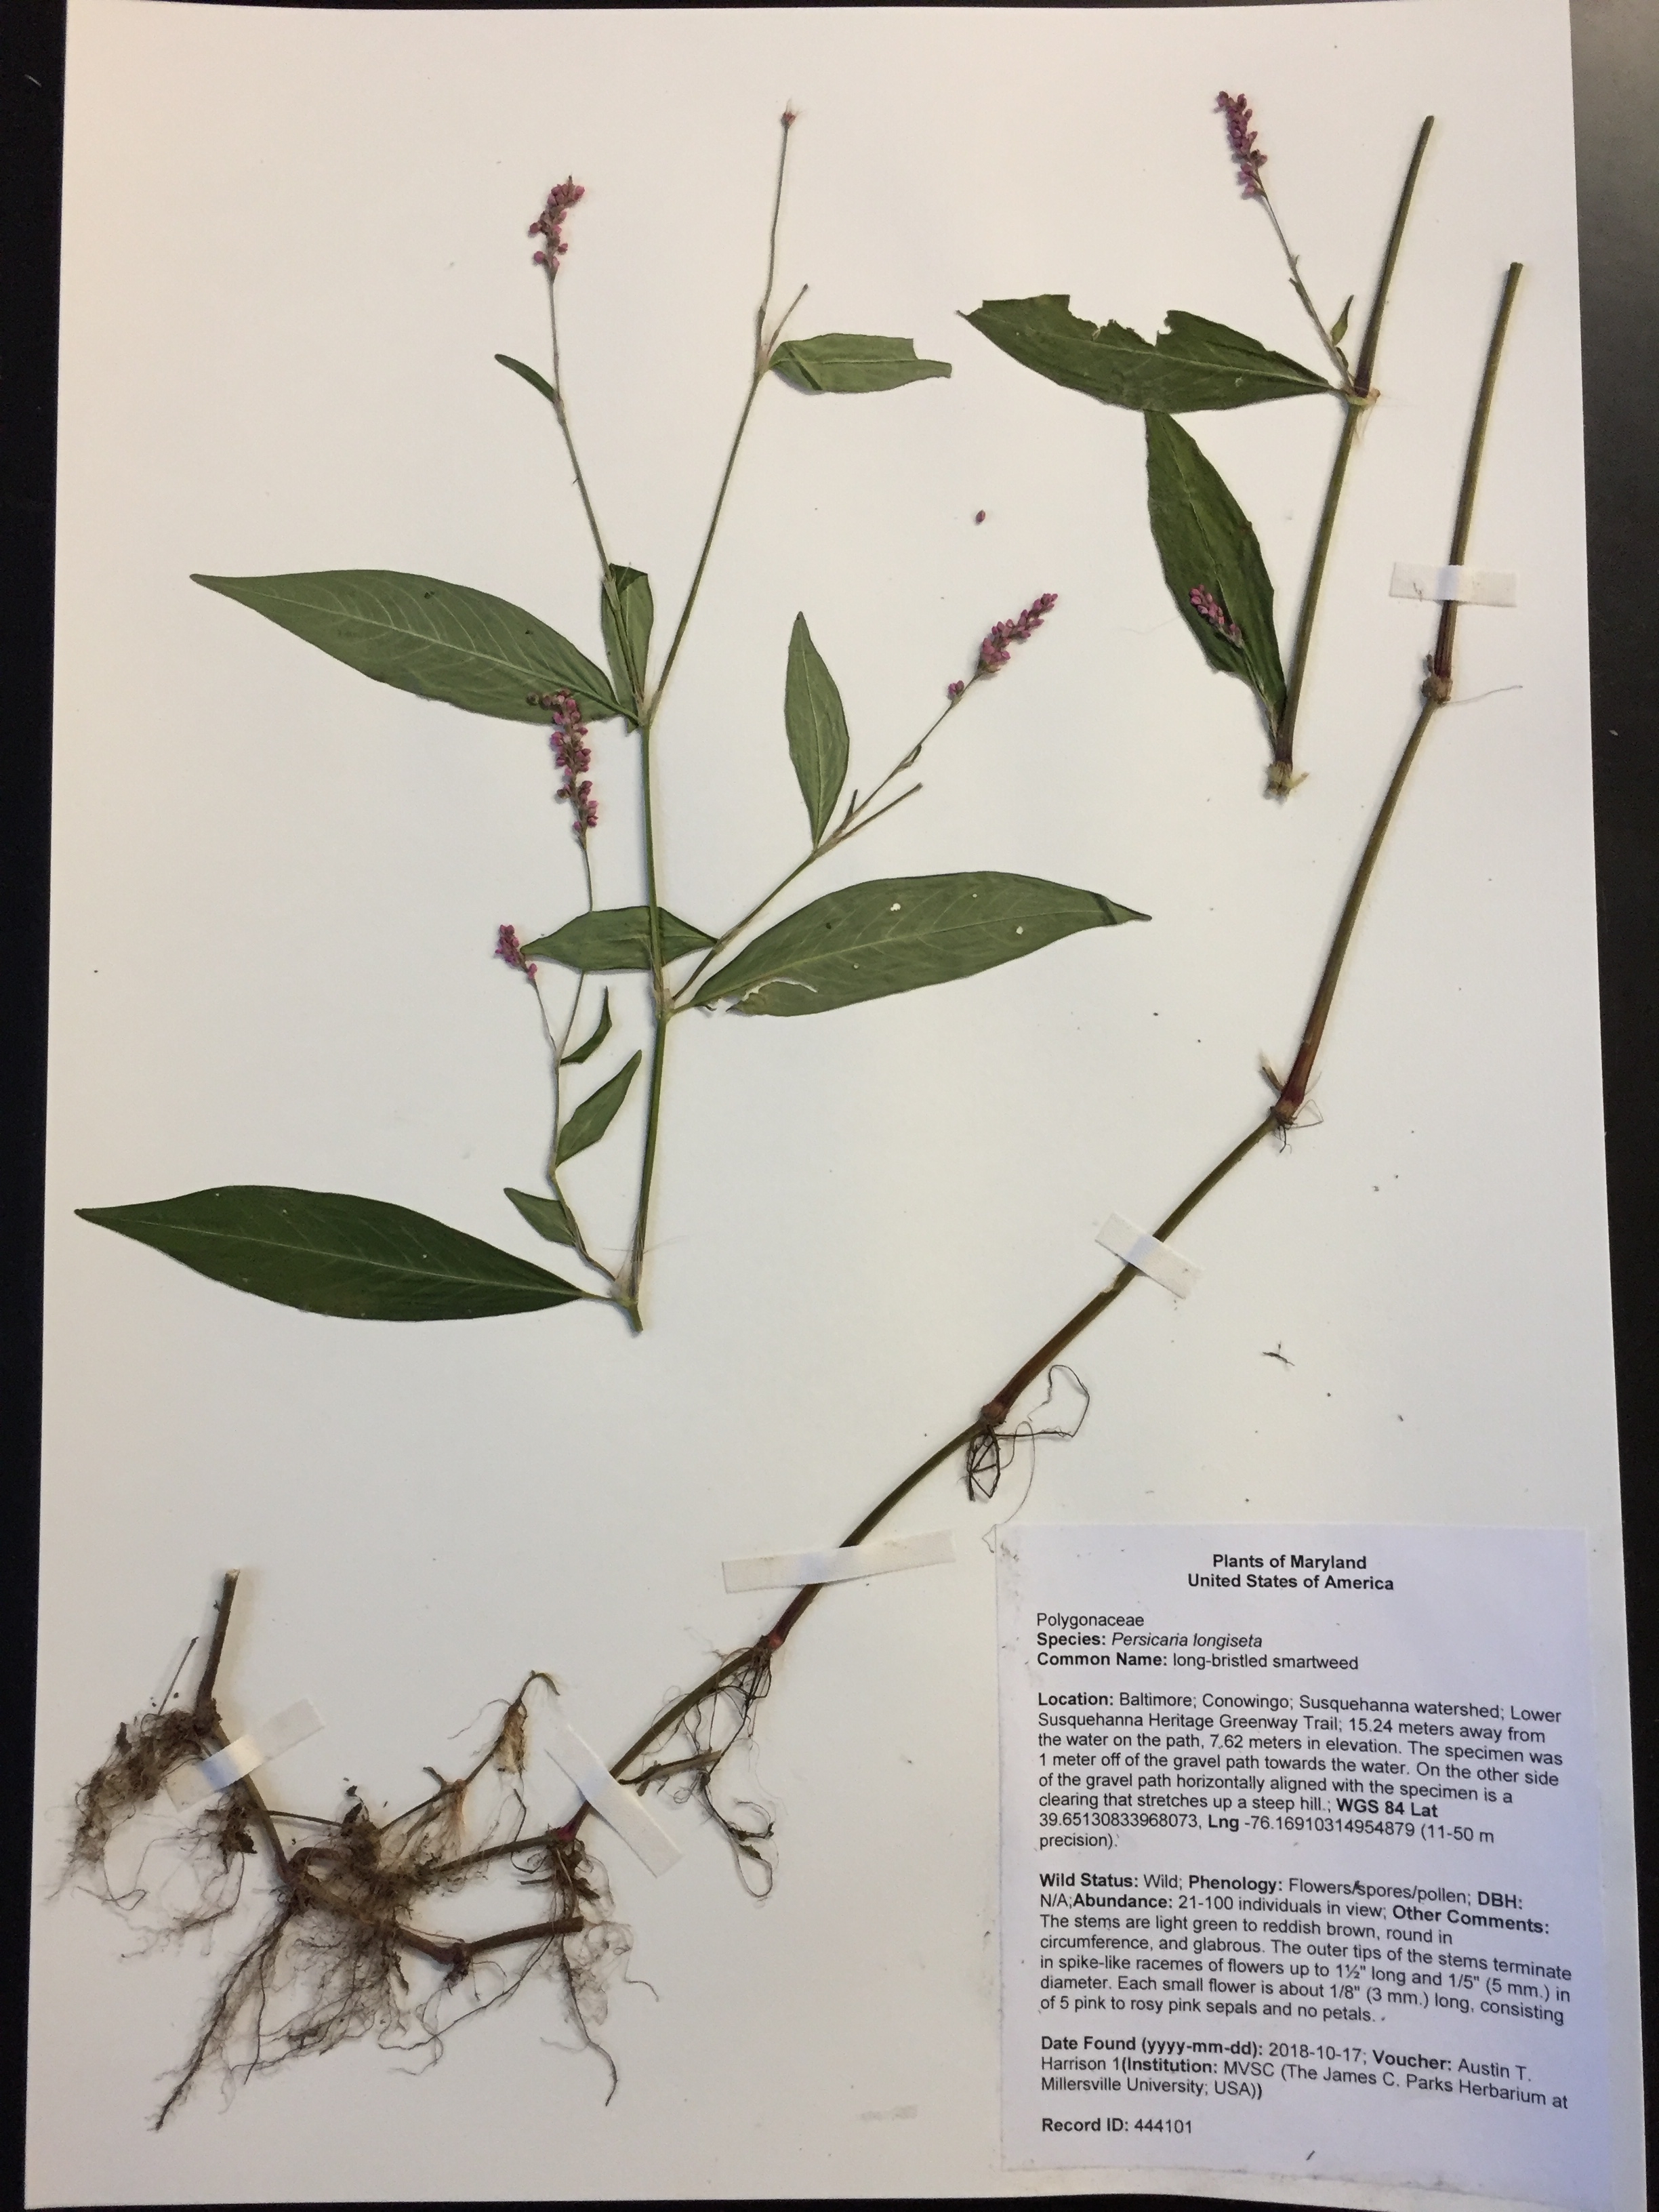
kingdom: Plantae
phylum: Tracheophyta
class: Magnoliopsida
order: Caryophyllales
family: Polygonaceae
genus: Persicaria
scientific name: Persicaria longiseta
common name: long-bristled smartweed
